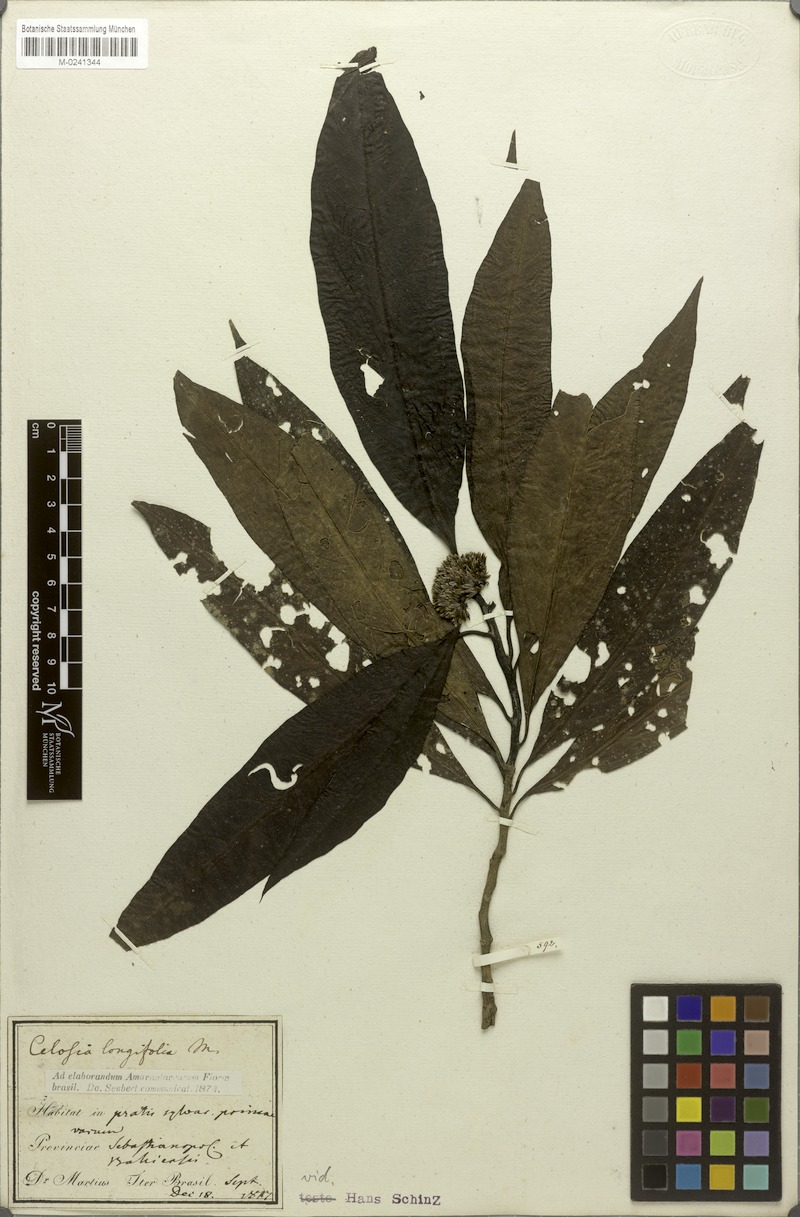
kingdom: Plantae
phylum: Tracheophyta
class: Magnoliopsida
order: Caryophyllales
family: Amaranthaceae
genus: Celosia
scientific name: Celosia longifolia
